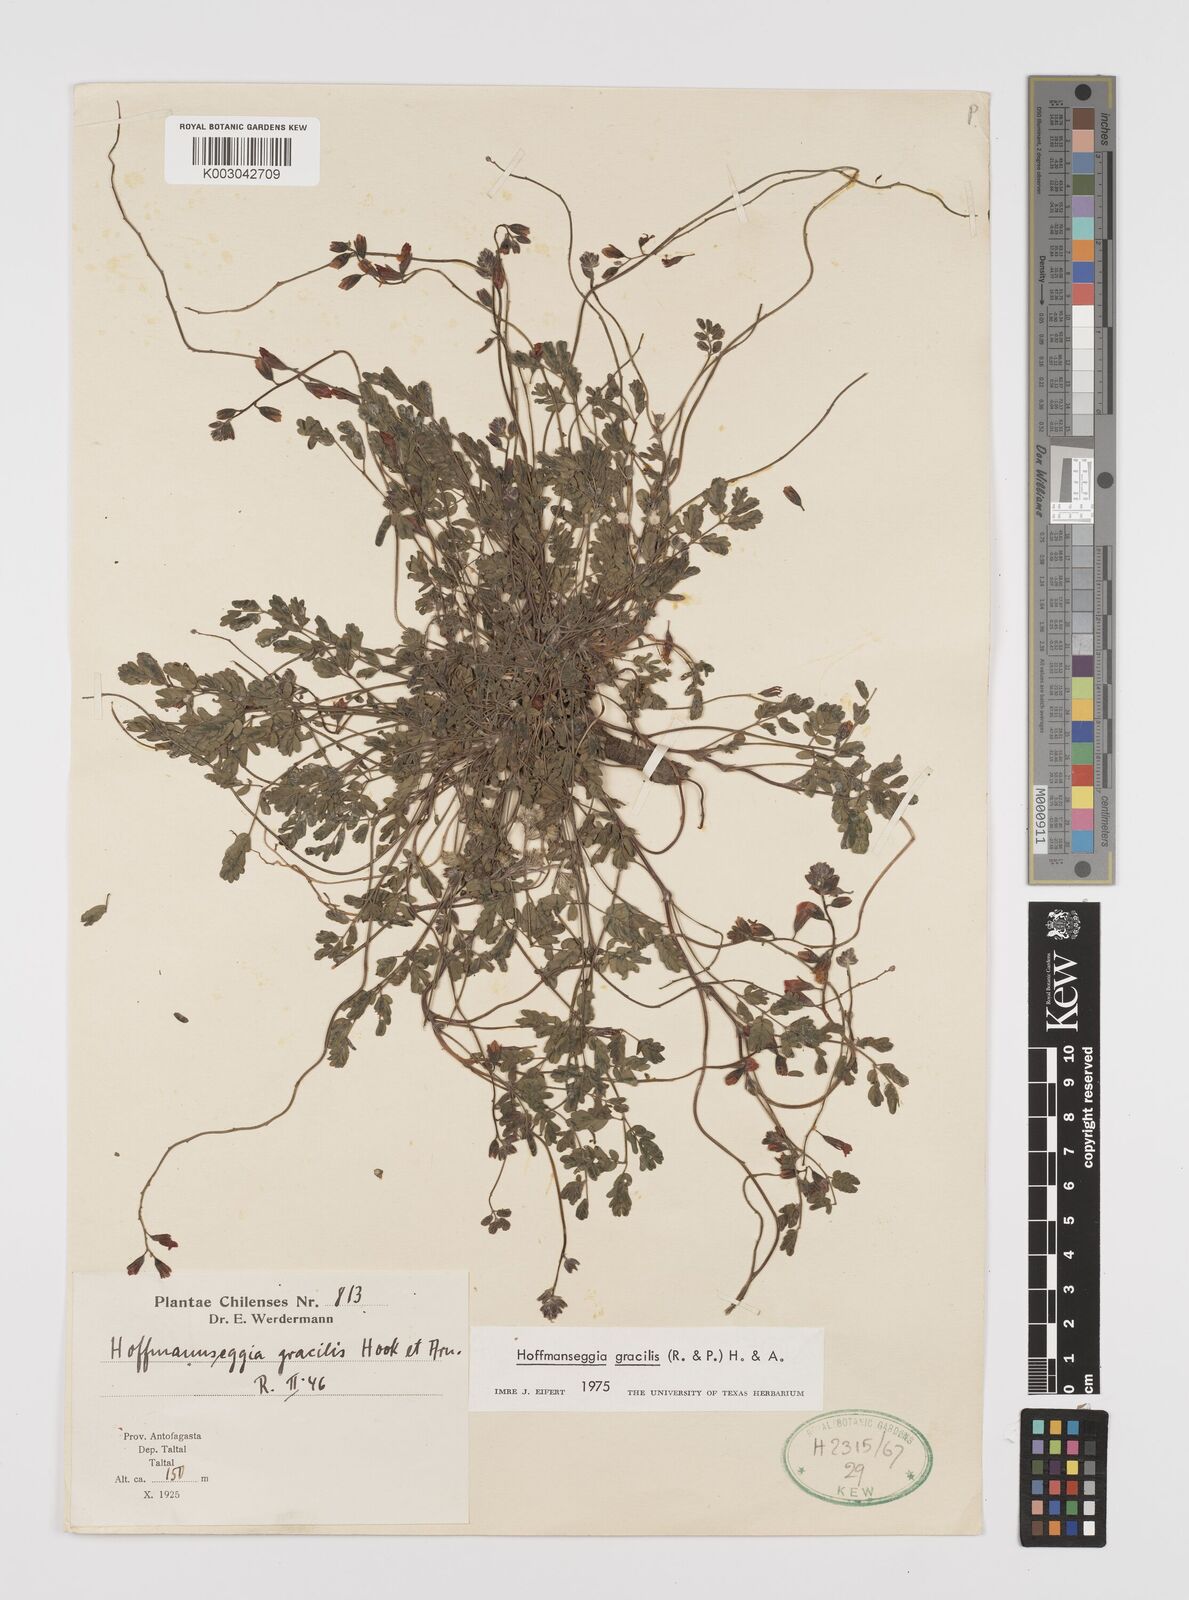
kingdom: Plantae
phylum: Tracheophyta
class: Magnoliopsida
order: Fabales
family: Fabaceae
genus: Hoffmannseggia
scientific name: Hoffmannseggia prostrata
